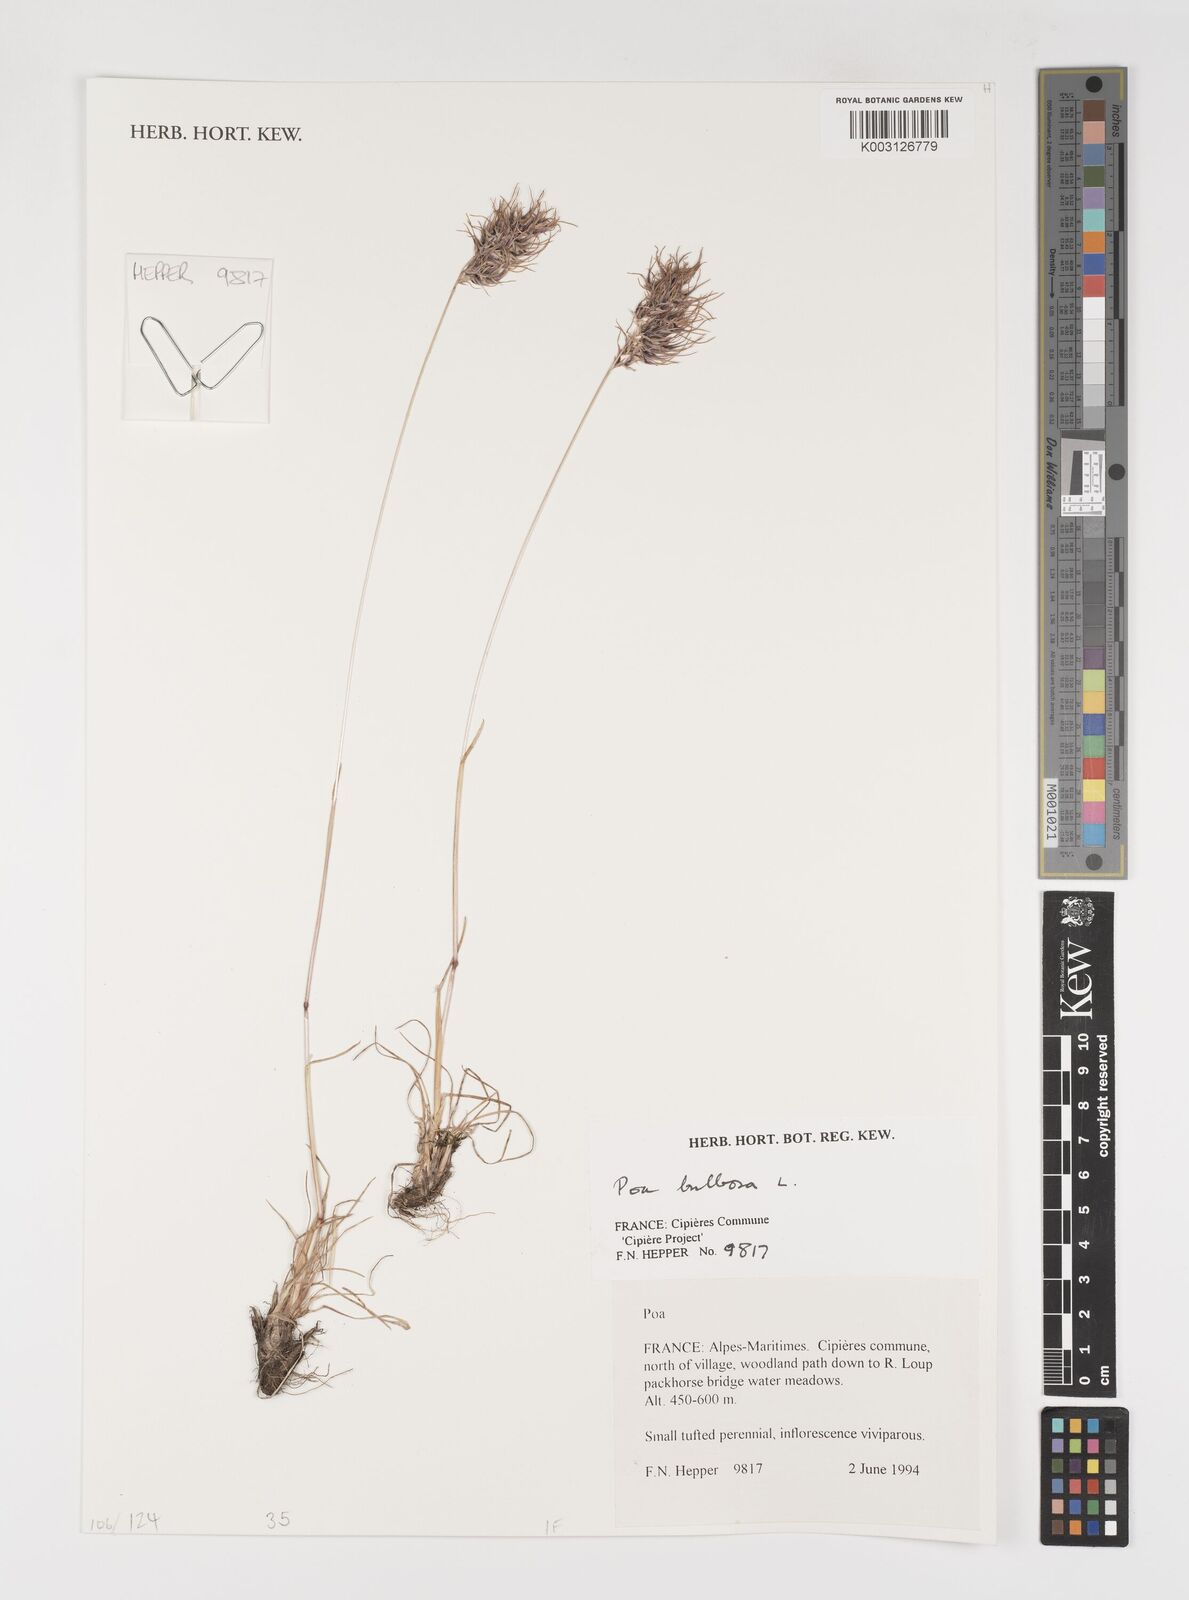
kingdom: Plantae
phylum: Tracheophyta
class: Liliopsida
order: Poales
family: Poaceae
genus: Poa
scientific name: Poa bulbosa
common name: Bulbous bluegrass
